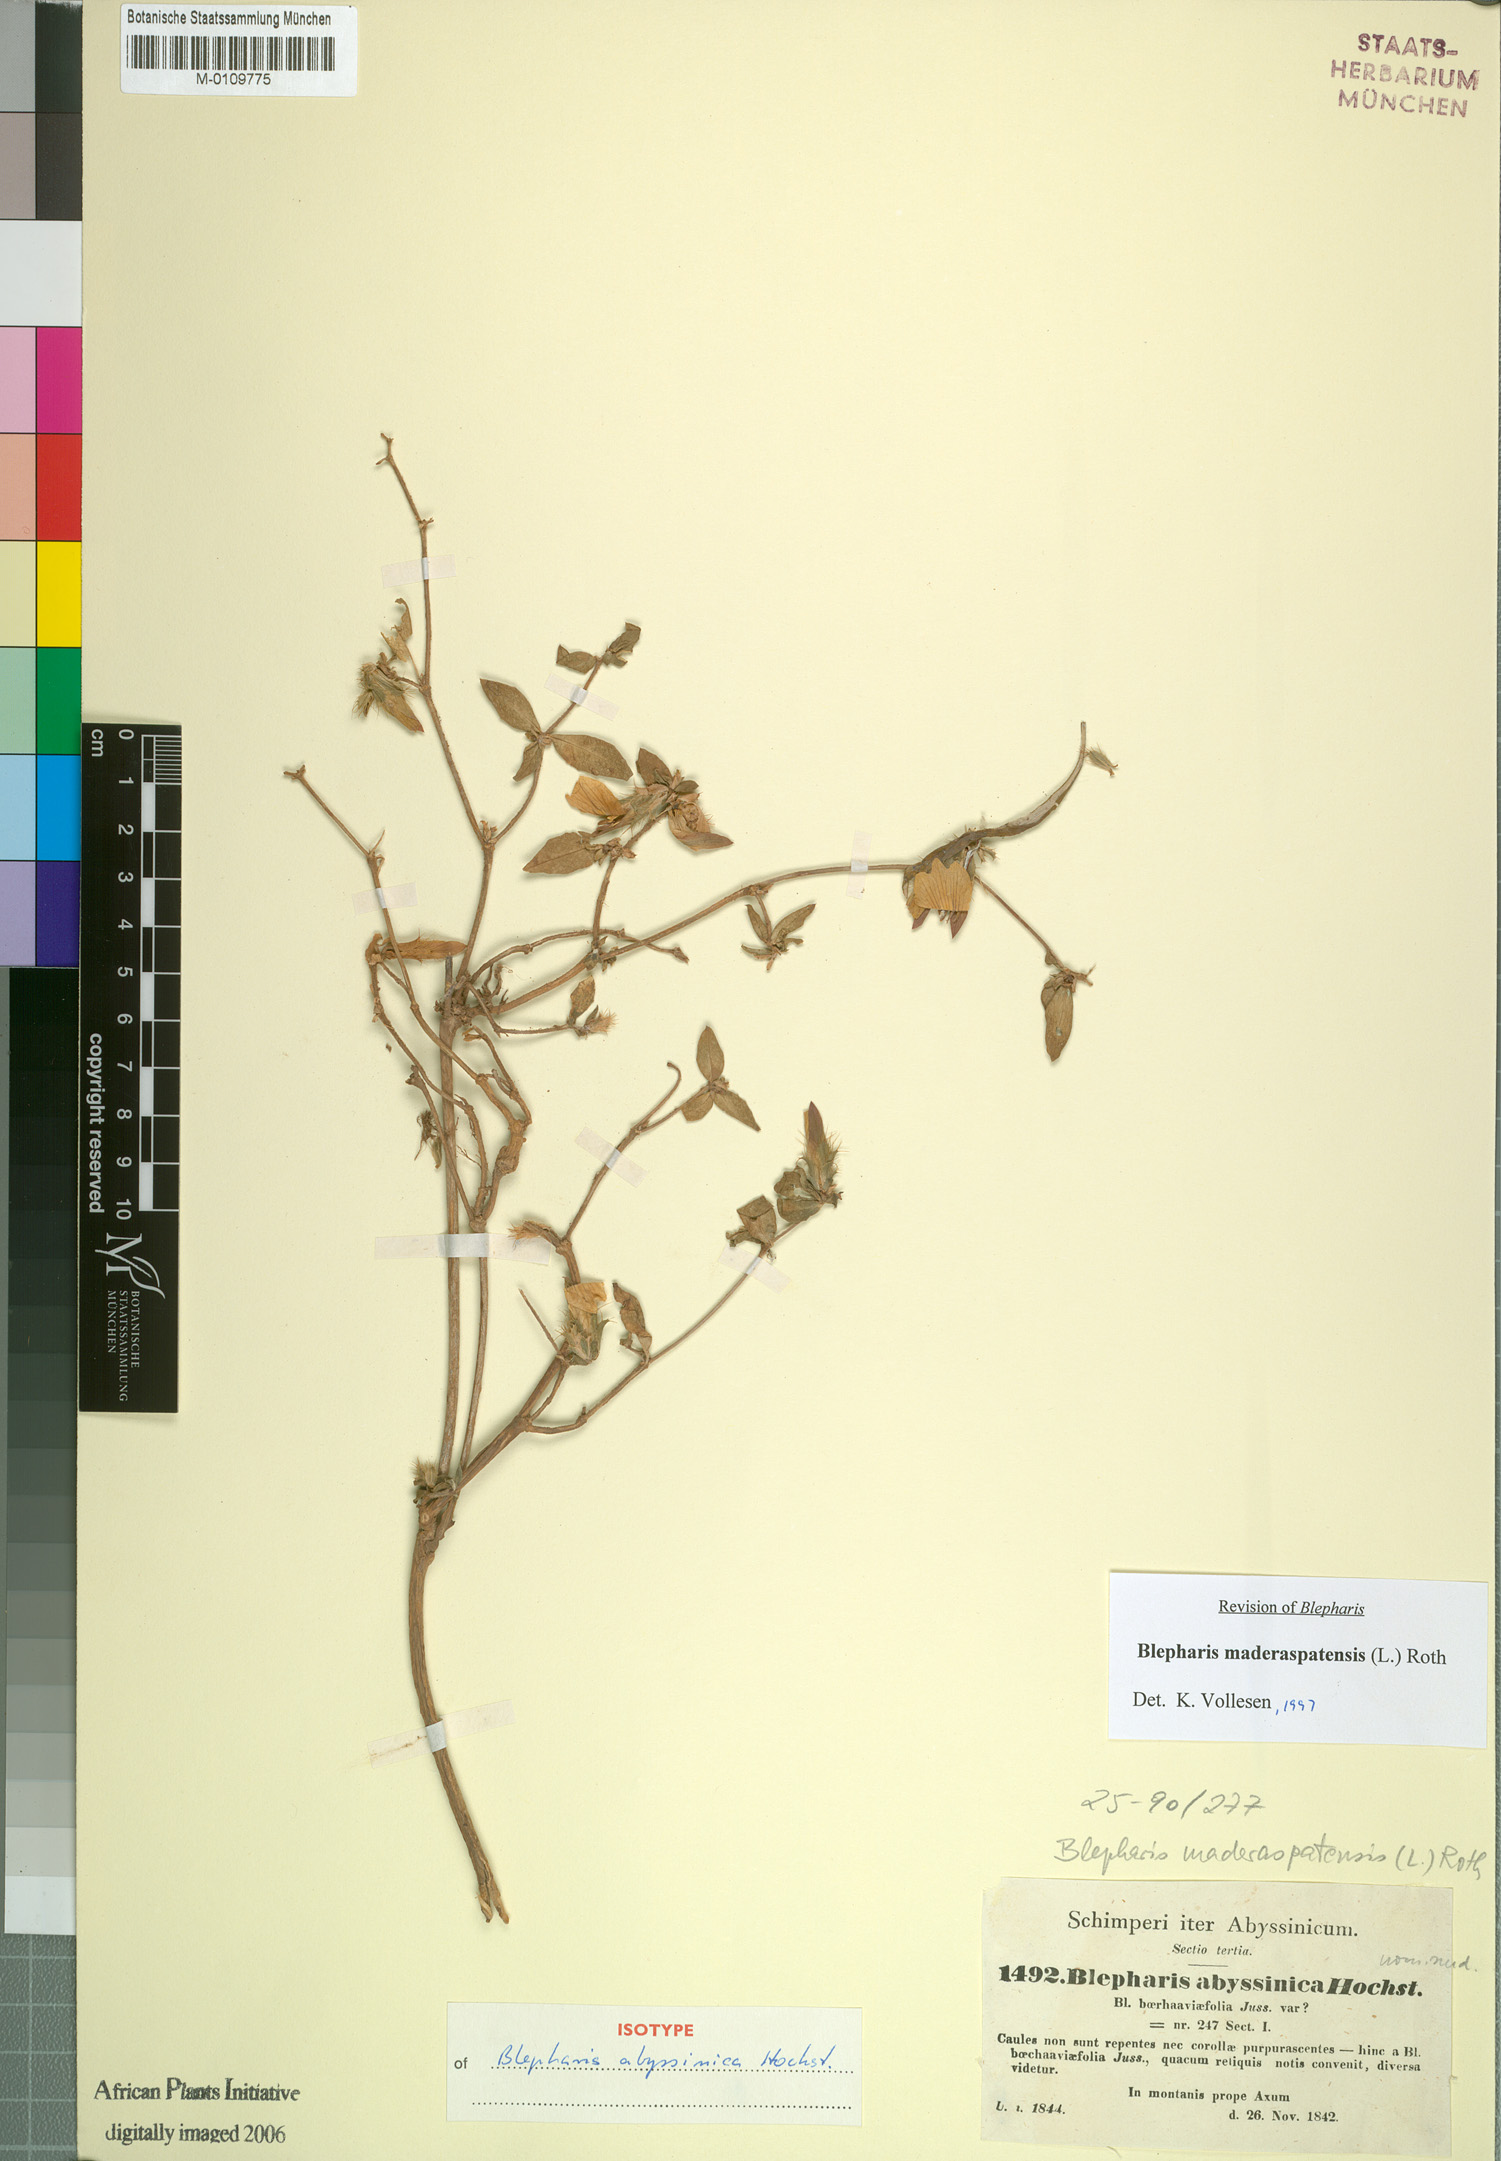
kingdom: Plantae
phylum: Tracheophyta
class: Magnoliopsida
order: Lamiales
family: Acanthaceae
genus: Blepharis
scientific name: Blepharis maderaspatensis
